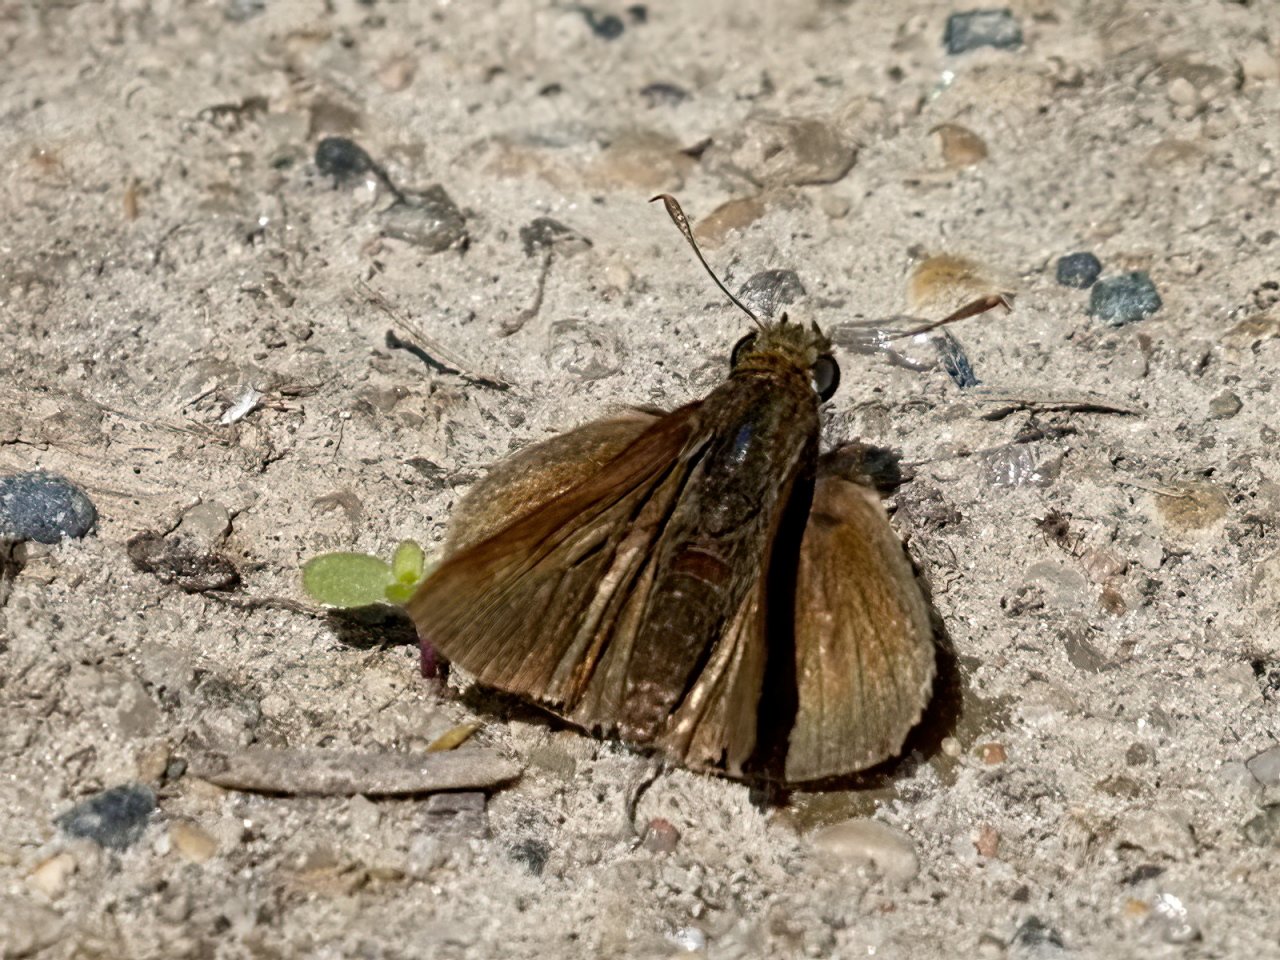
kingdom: Animalia
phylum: Arthropoda
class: Insecta
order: Lepidoptera
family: Hesperiidae
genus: Euphyes
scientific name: Euphyes vestris
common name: Dun Skipper
